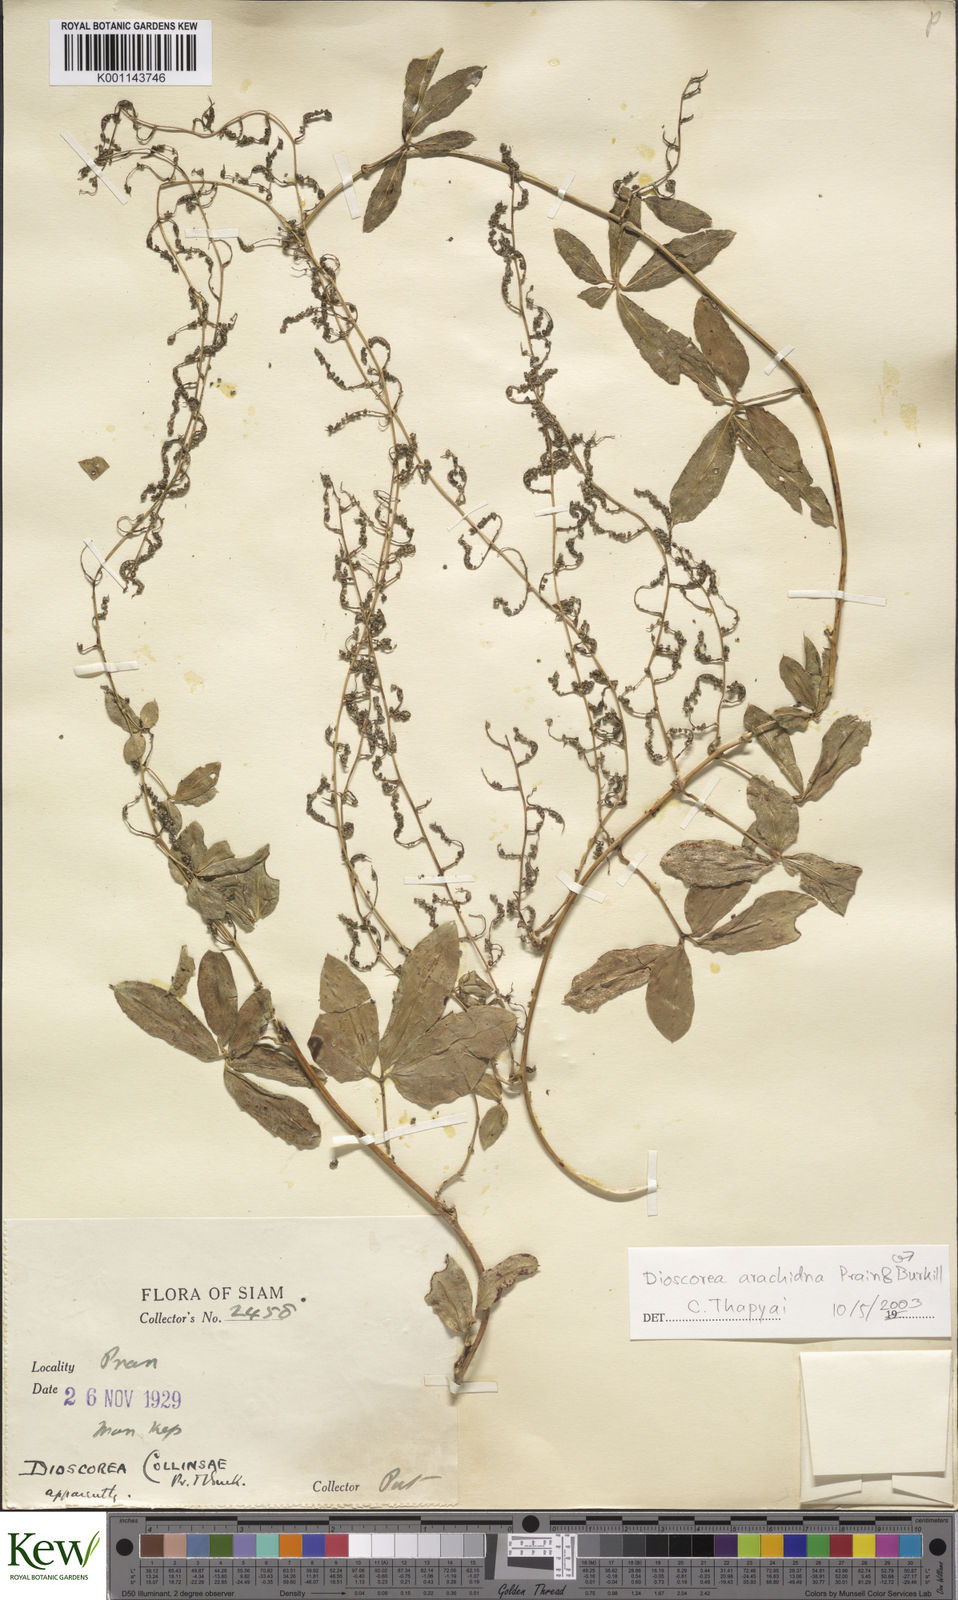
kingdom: Plantae
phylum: Tracheophyta
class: Liliopsida
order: Dioscoreales
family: Dioscoreaceae
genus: Dioscorea
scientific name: Dioscorea arachidna
